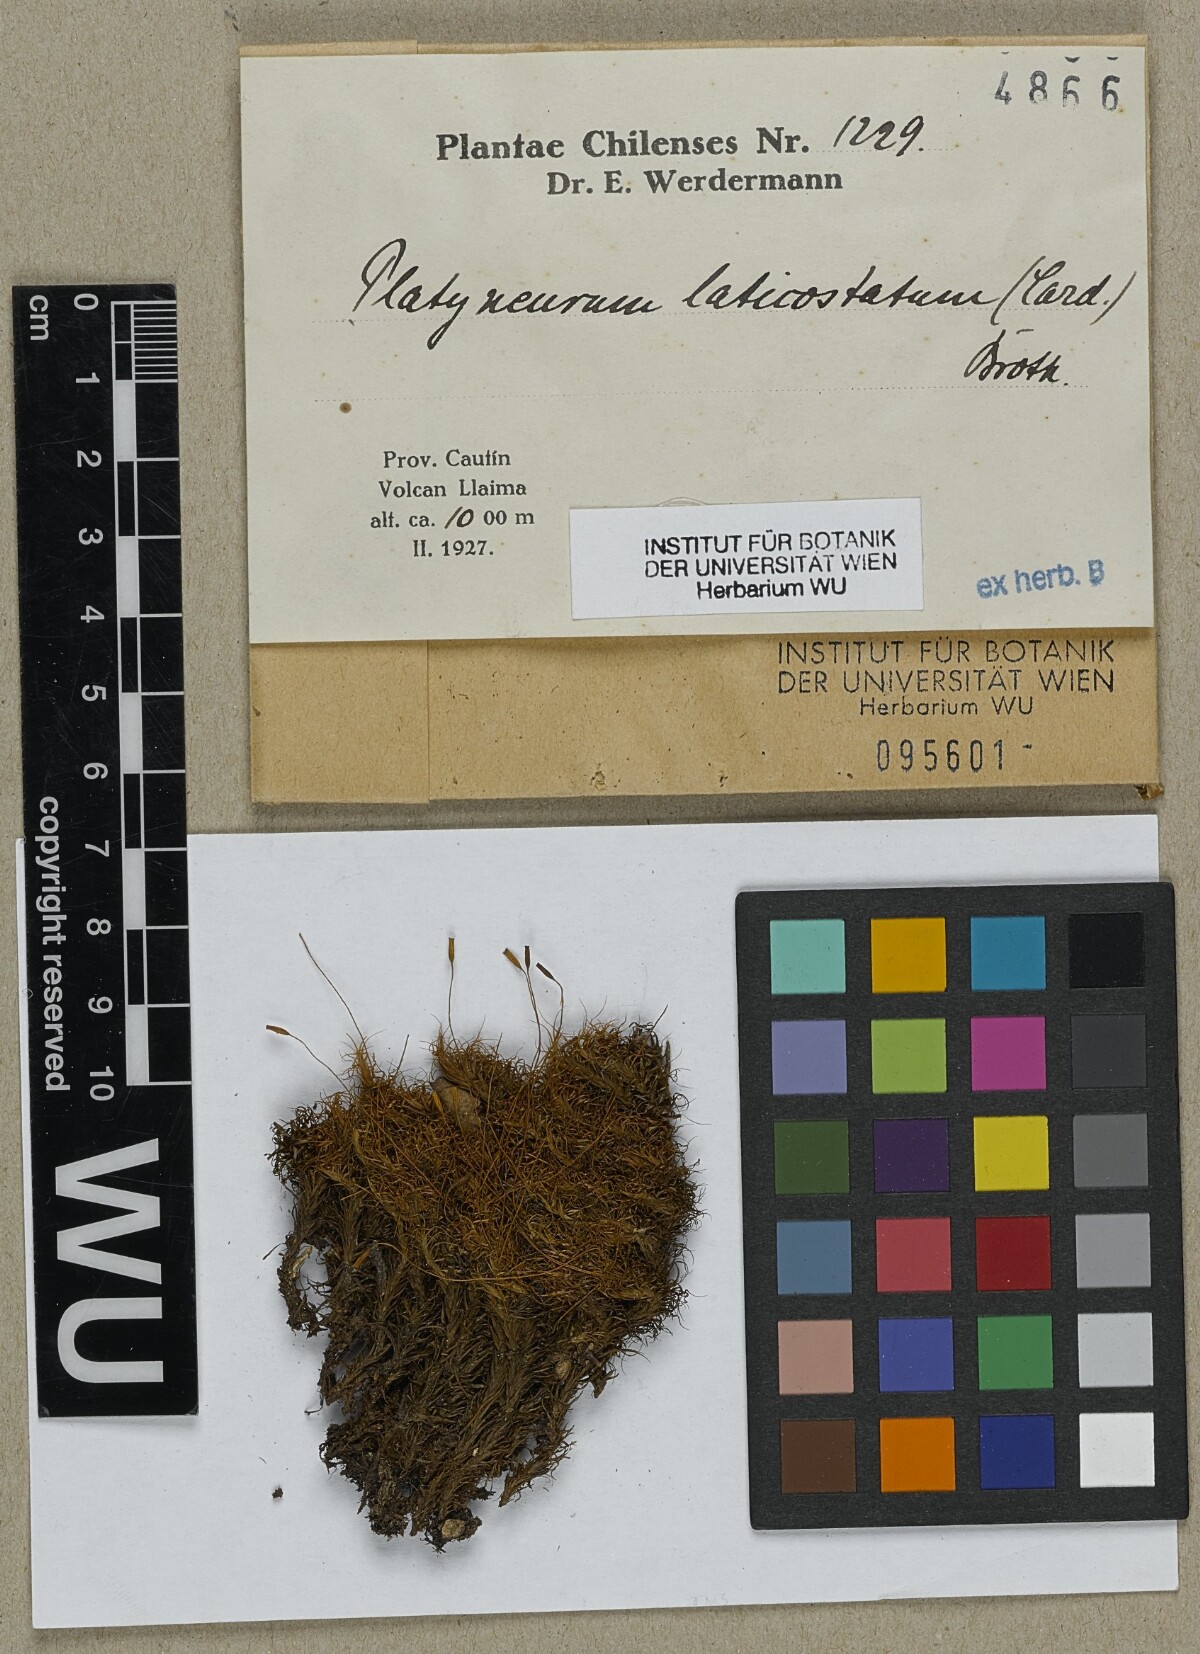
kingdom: Plantae
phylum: Bryophyta
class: Bryopsida
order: Dicranales
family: Dicranaceae
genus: Platyneuron
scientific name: Platyneuron praealtum
